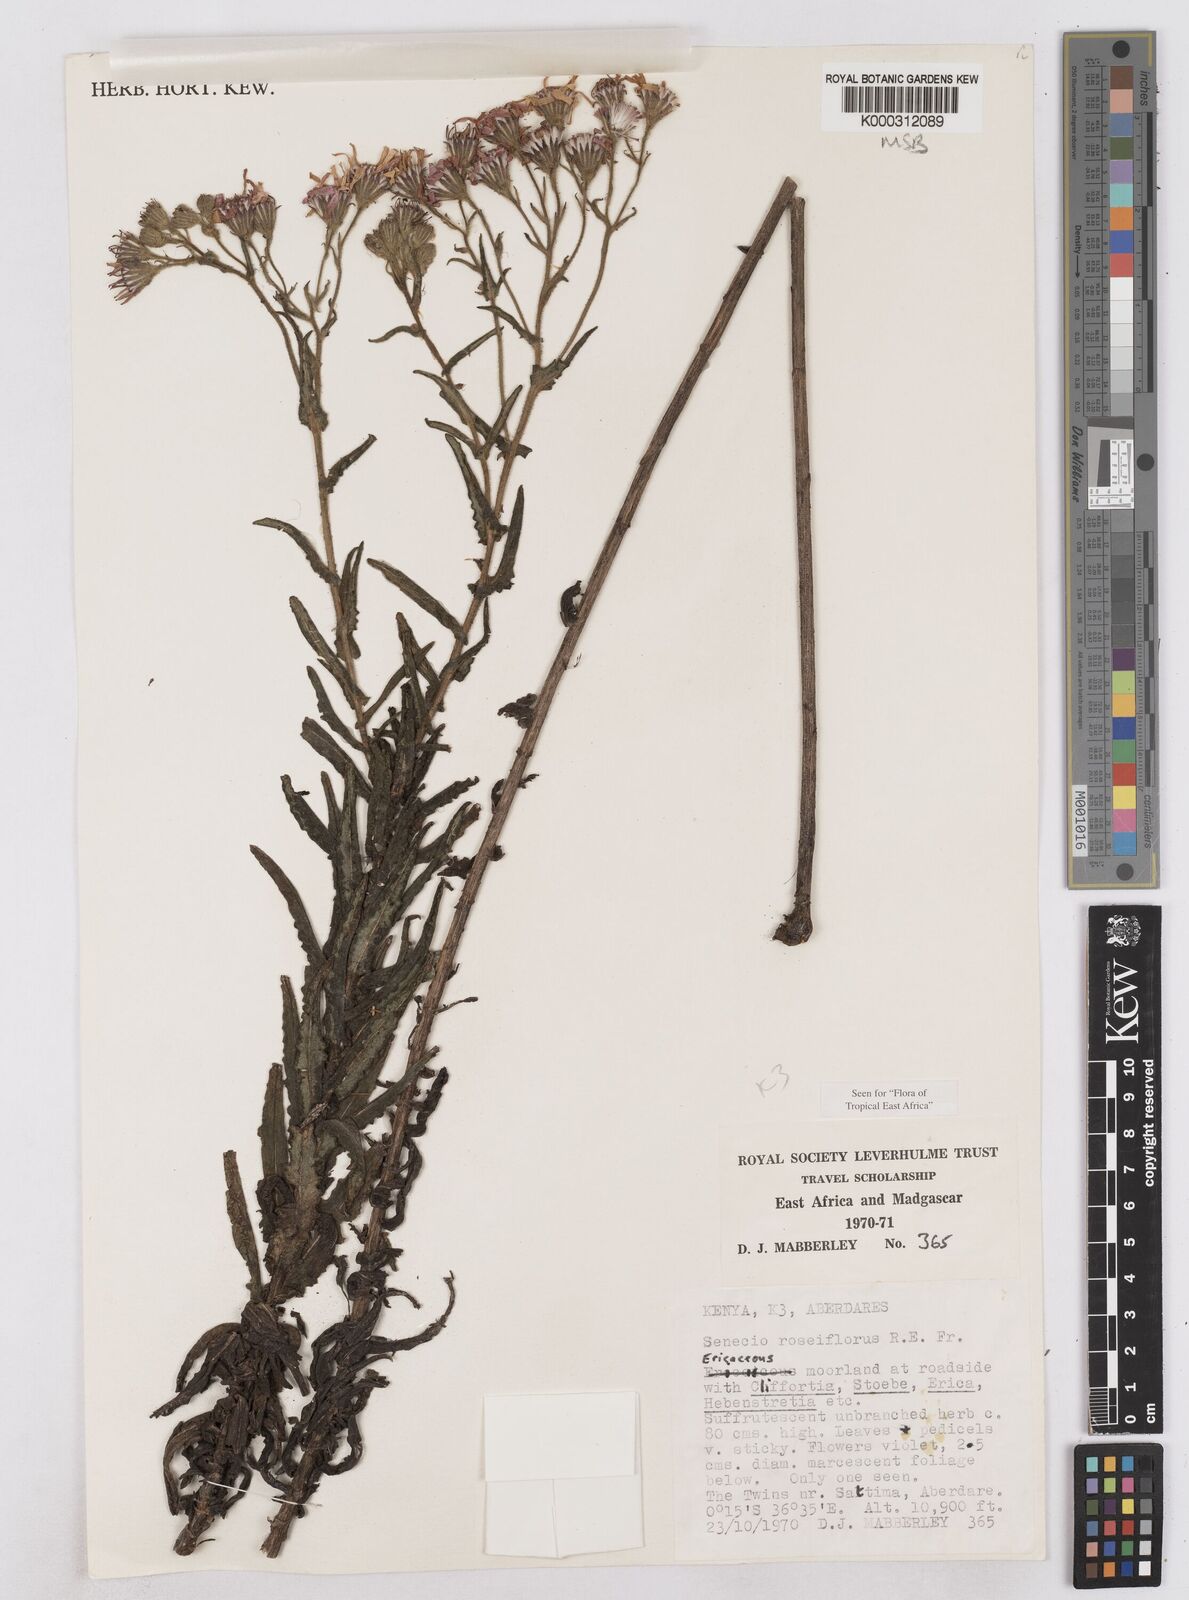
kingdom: Plantae
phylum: Tracheophyta
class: Magnoliopsida
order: Asterales
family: Asteraceae
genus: Senecio
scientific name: Senecio roseiflorus
